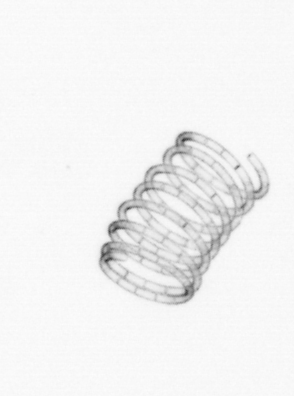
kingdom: Chromista
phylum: Ochrophyta
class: Bacillariophyceae
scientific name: Bacillariophyceae
